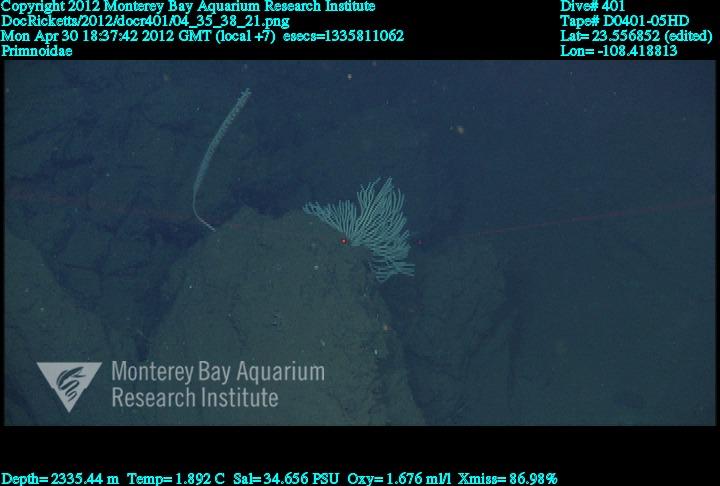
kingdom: Animalia
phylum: Cnidaria
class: Anthozoa
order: Scleralcyonacea
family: Primnoidae
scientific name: Primnoidae
